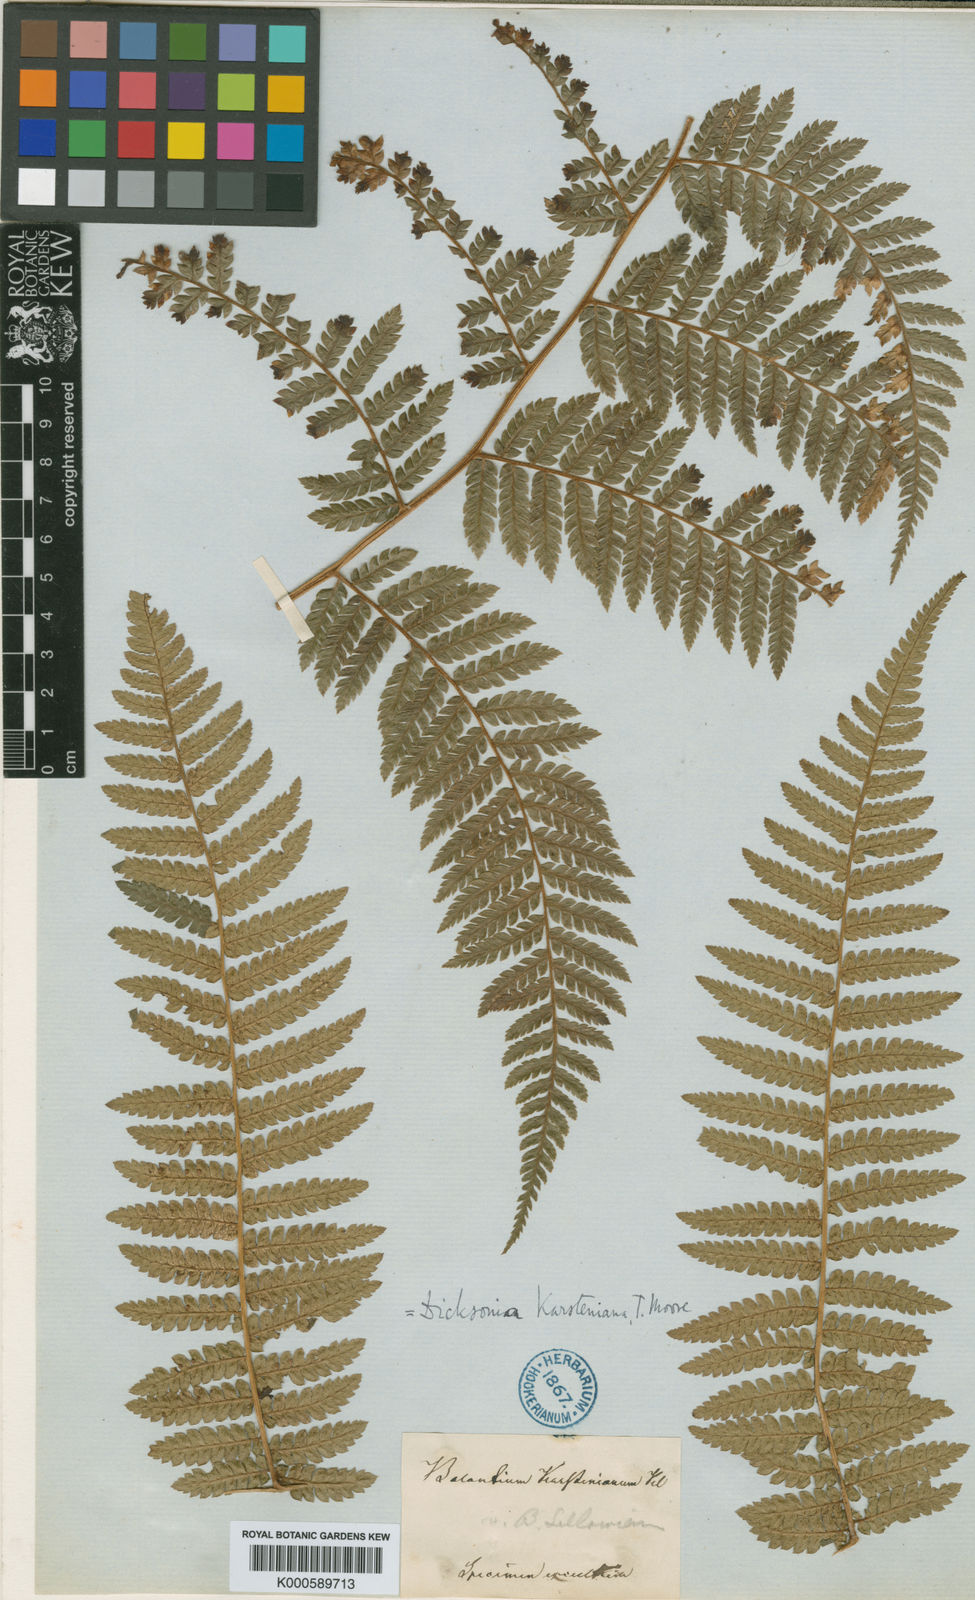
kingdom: Plantae
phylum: Tracheophyta
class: Polypodiopsida
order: Cyatheales
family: Dicksoniaceae
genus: Dicksonia
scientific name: Dicksonia karsteniana
